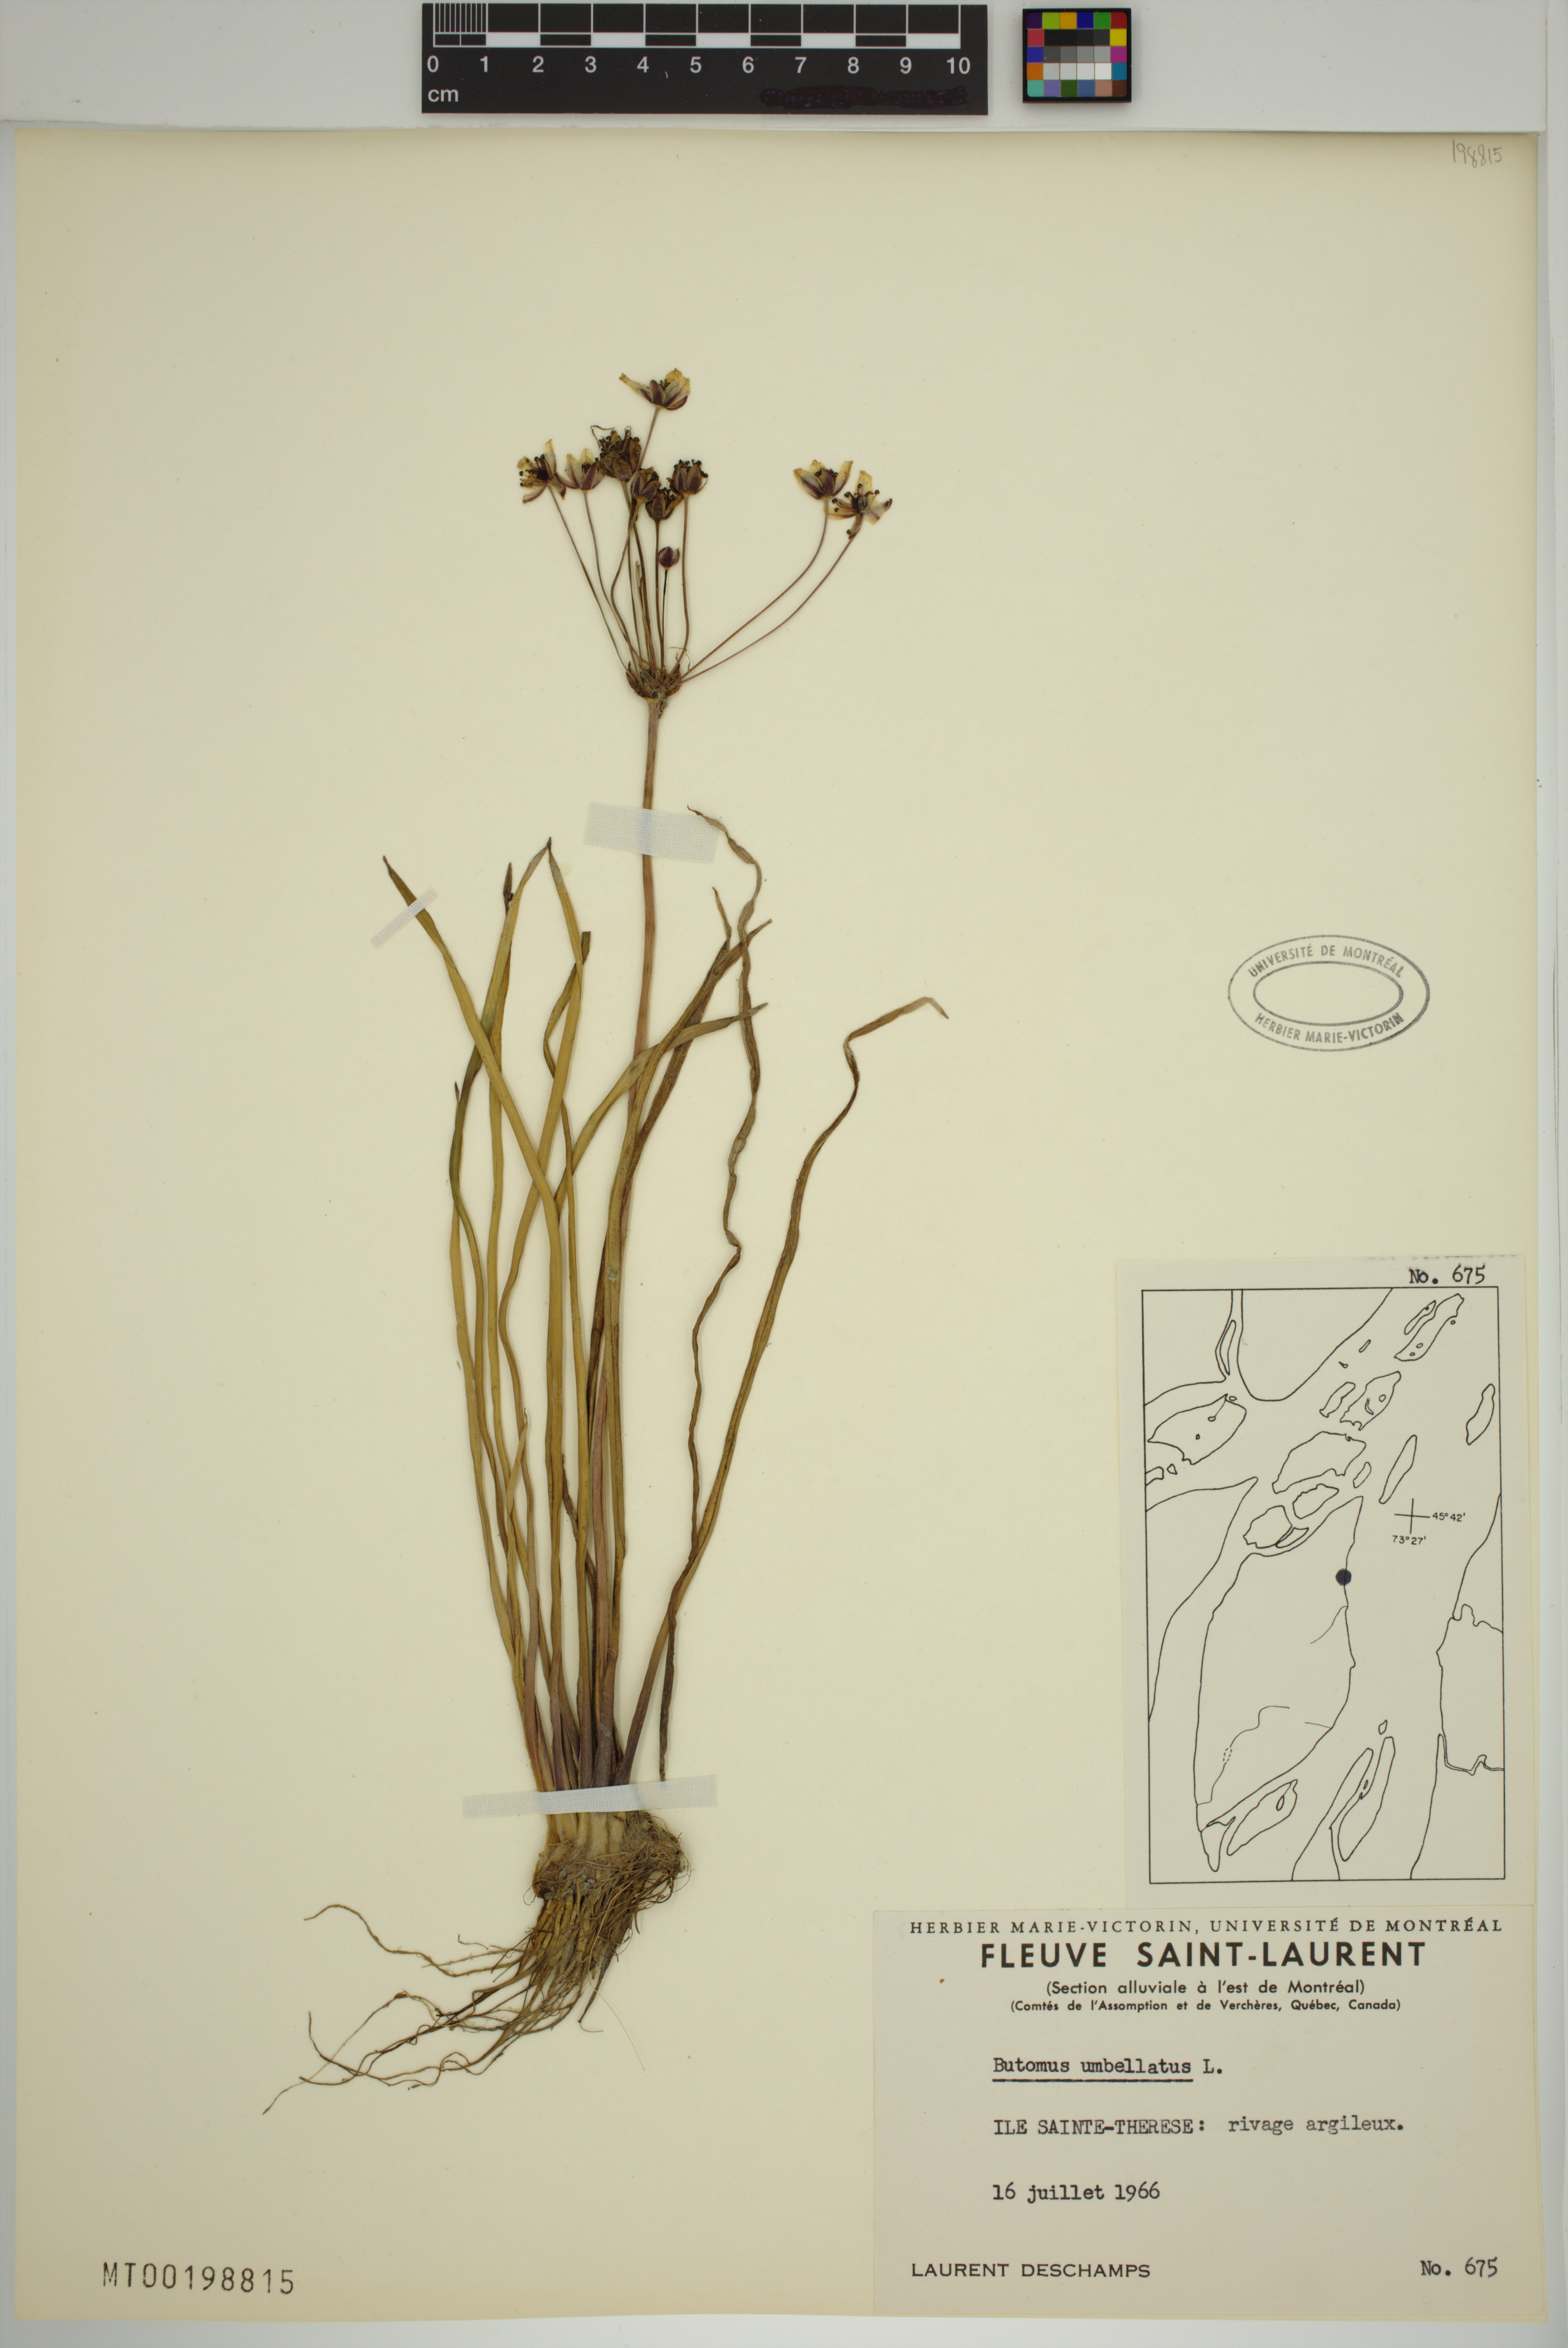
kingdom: Plantae
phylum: Tracheophyta
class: Liliopsida
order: Alismatales
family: Butomaceae
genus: Butomus
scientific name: Butomus umbellatus
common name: Flowering-rush
